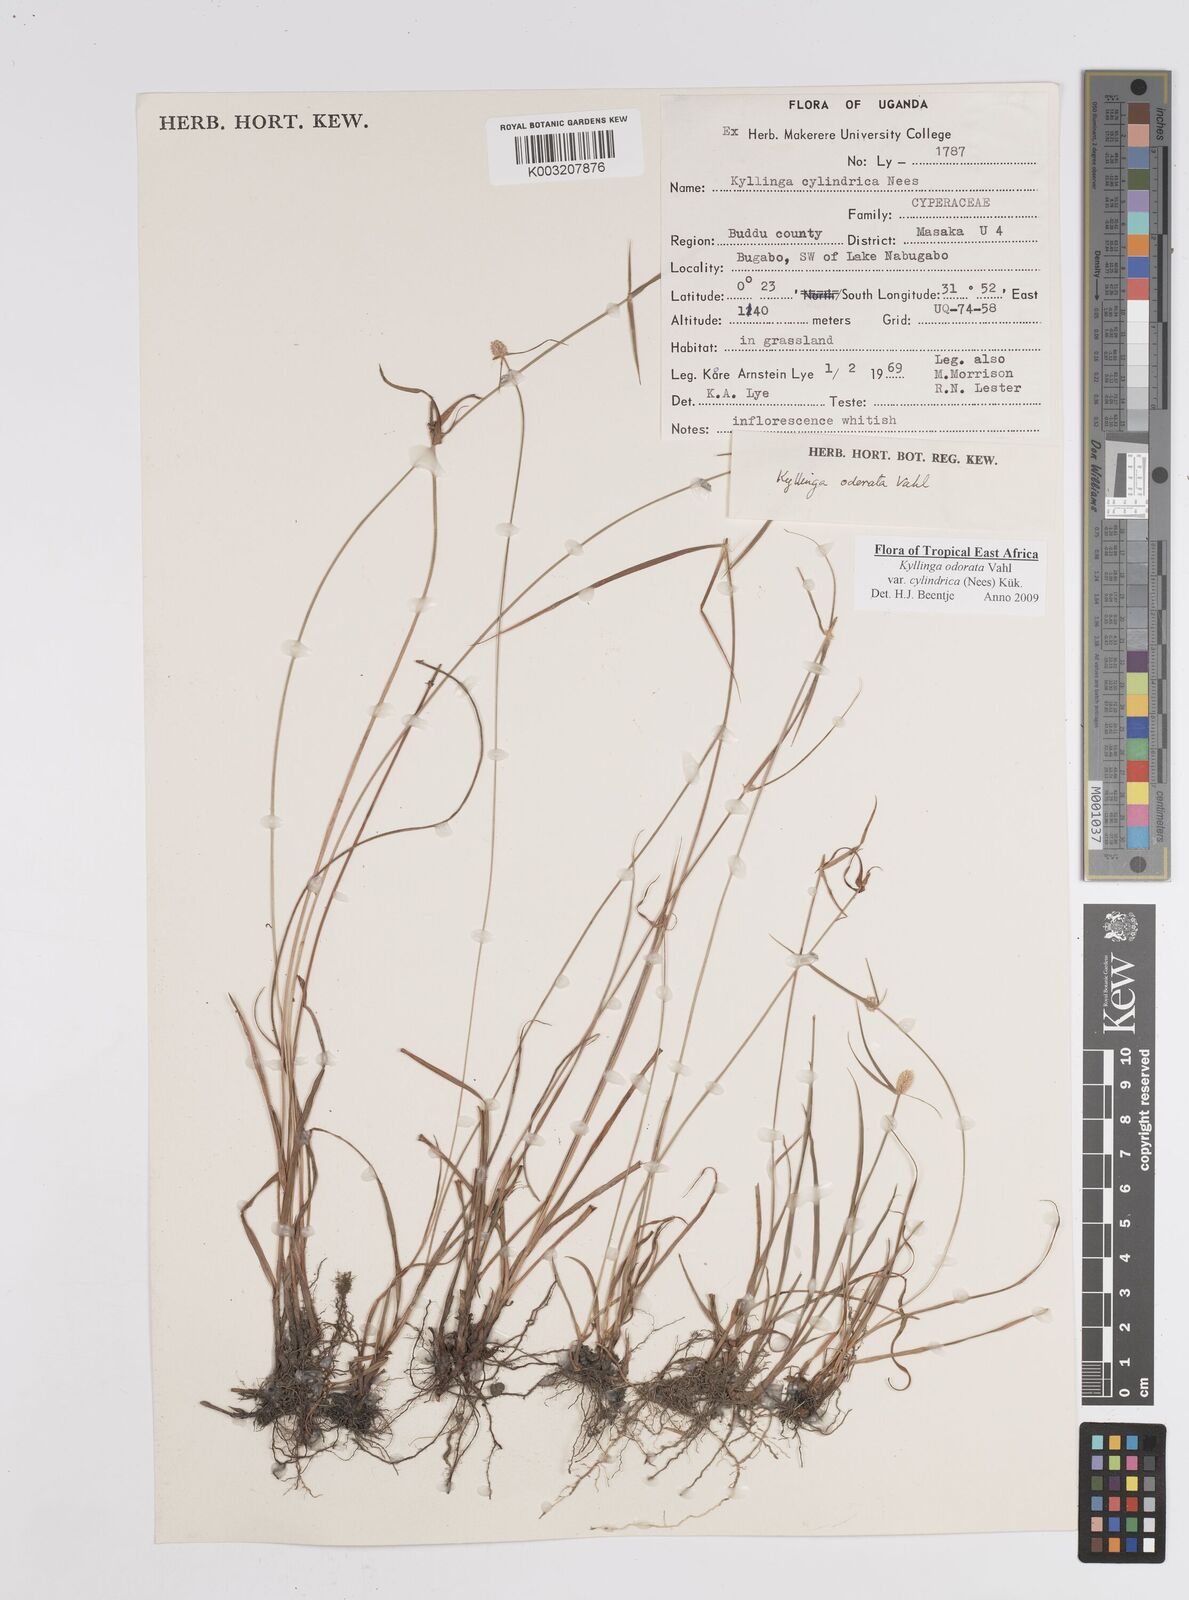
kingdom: Plantae
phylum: Tracheophyta
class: Liliopsida
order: Poales
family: Cyperaceae
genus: Cyperus
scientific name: Cyperus
